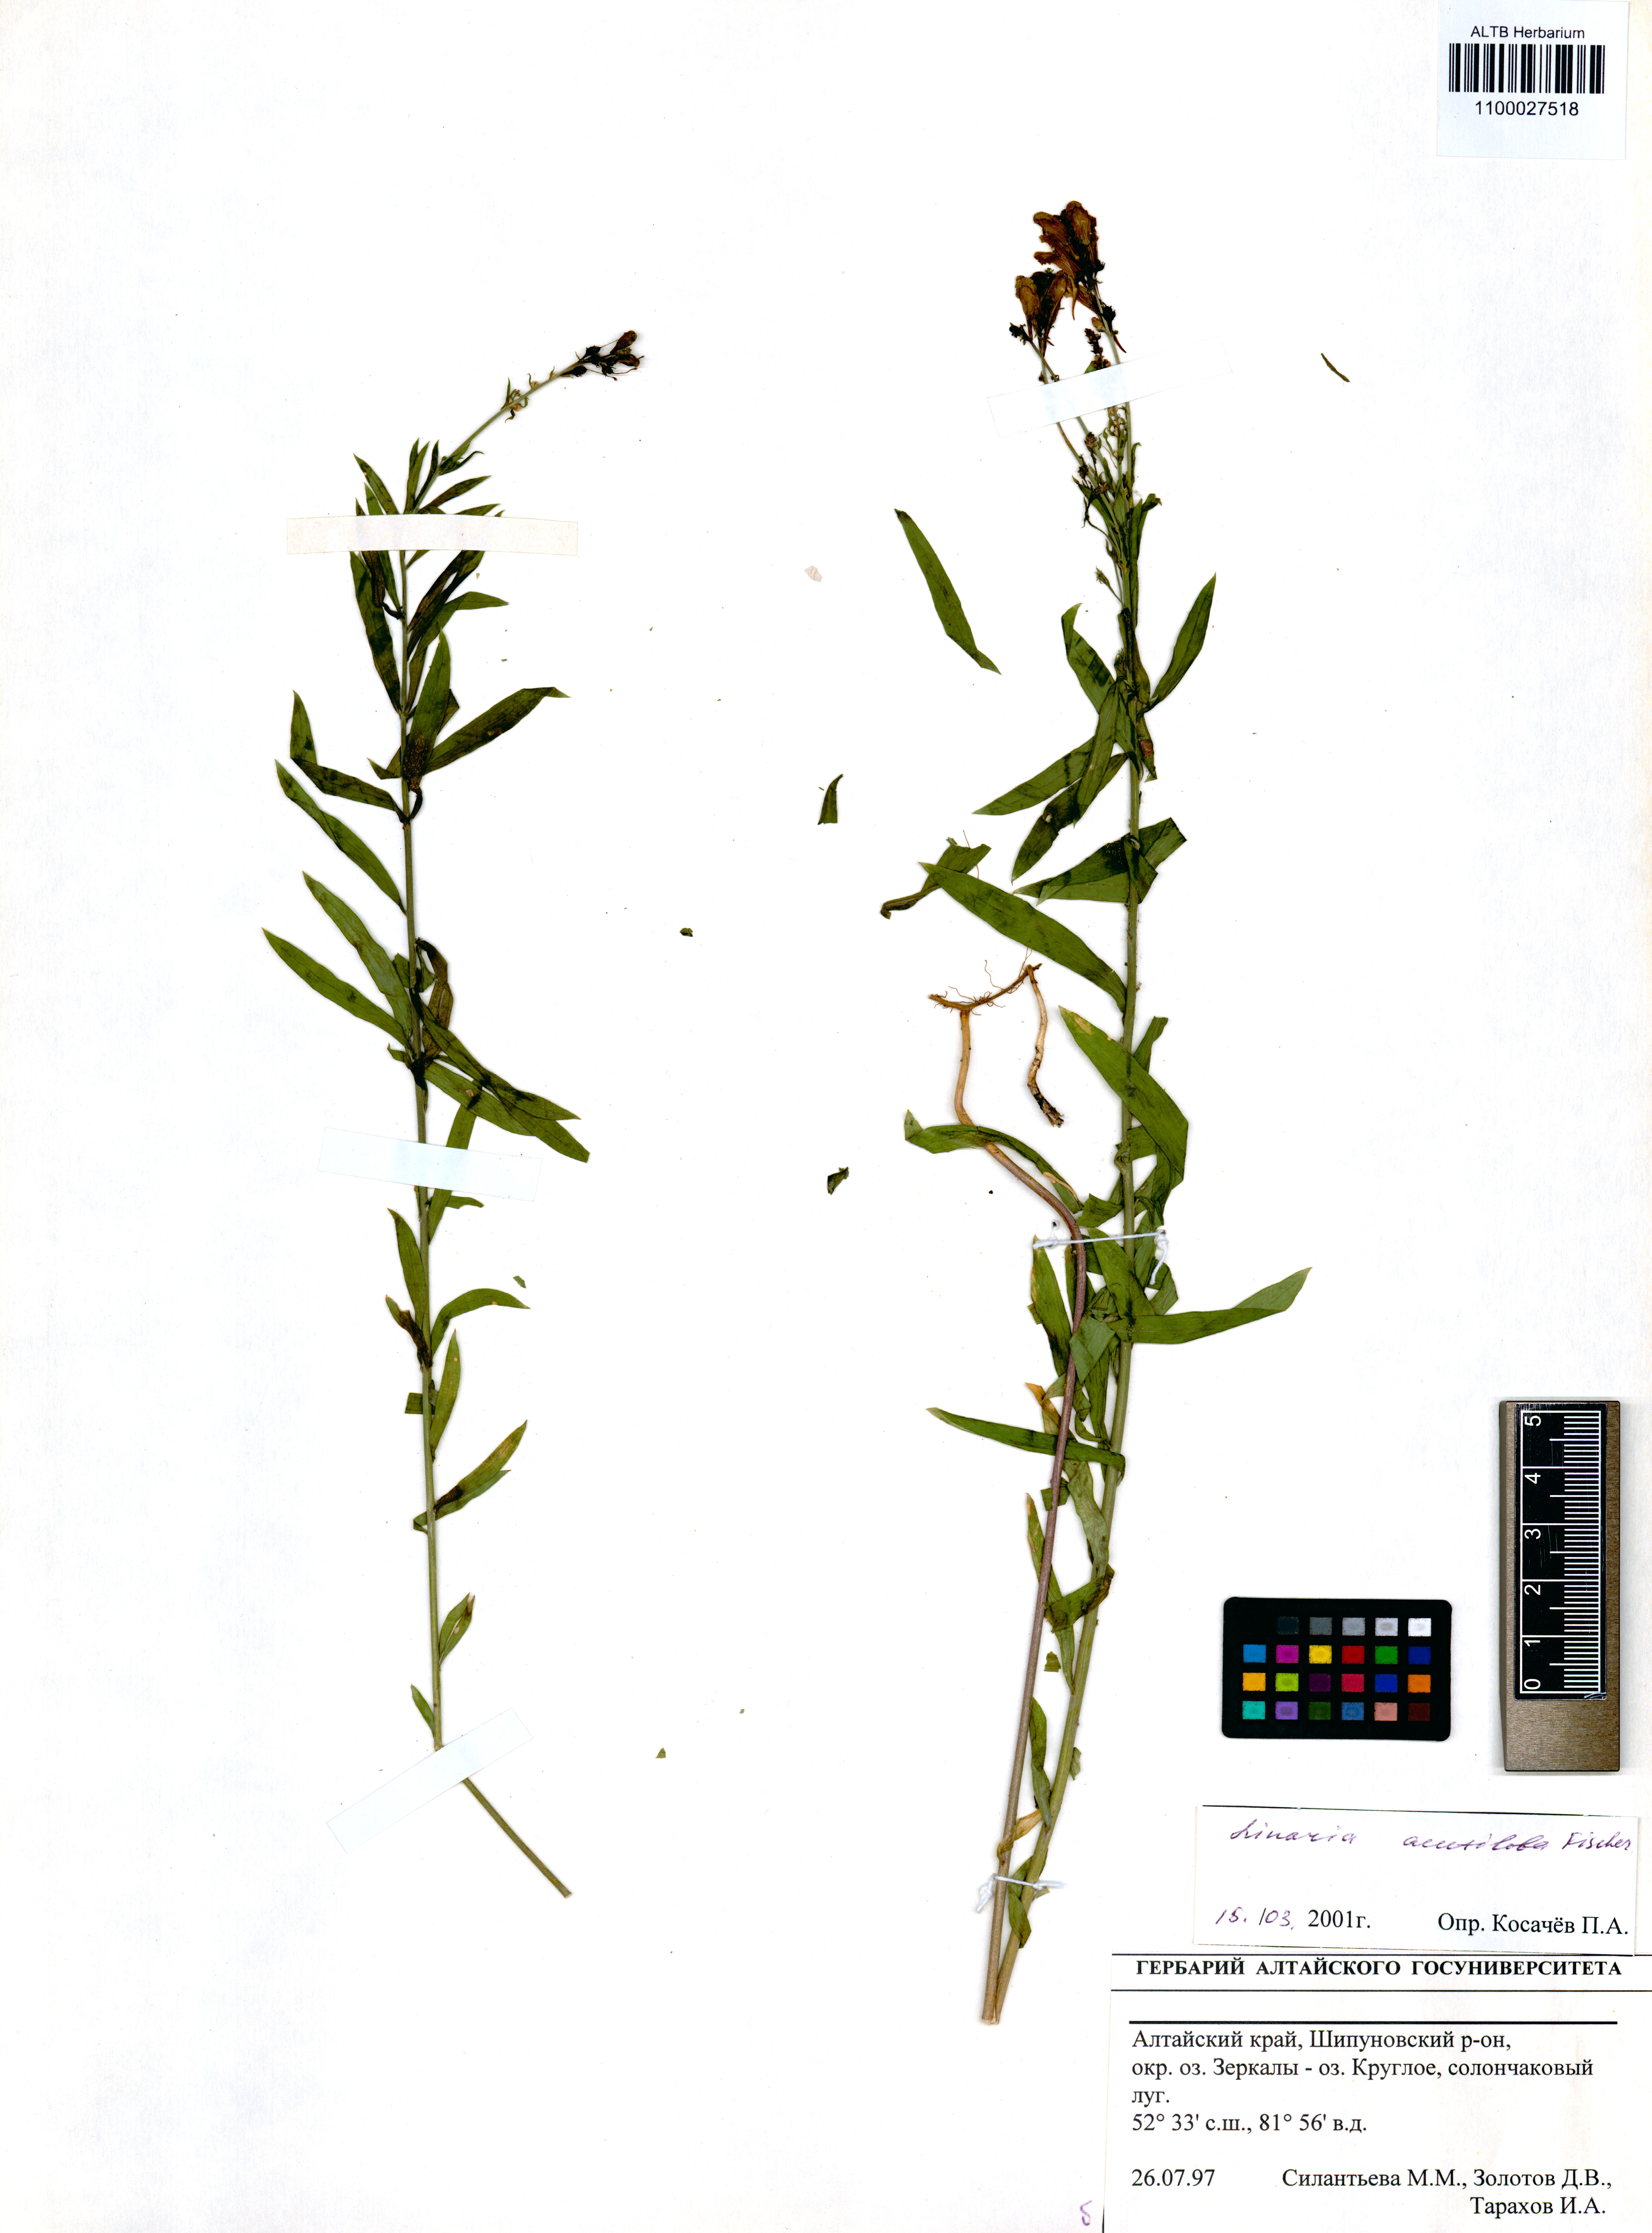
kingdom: Plantae
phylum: Tracheophyta
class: Magnoliopsida
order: Lamiales
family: Plantaginaceae
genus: Linaria
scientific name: Linaria acutiloba
